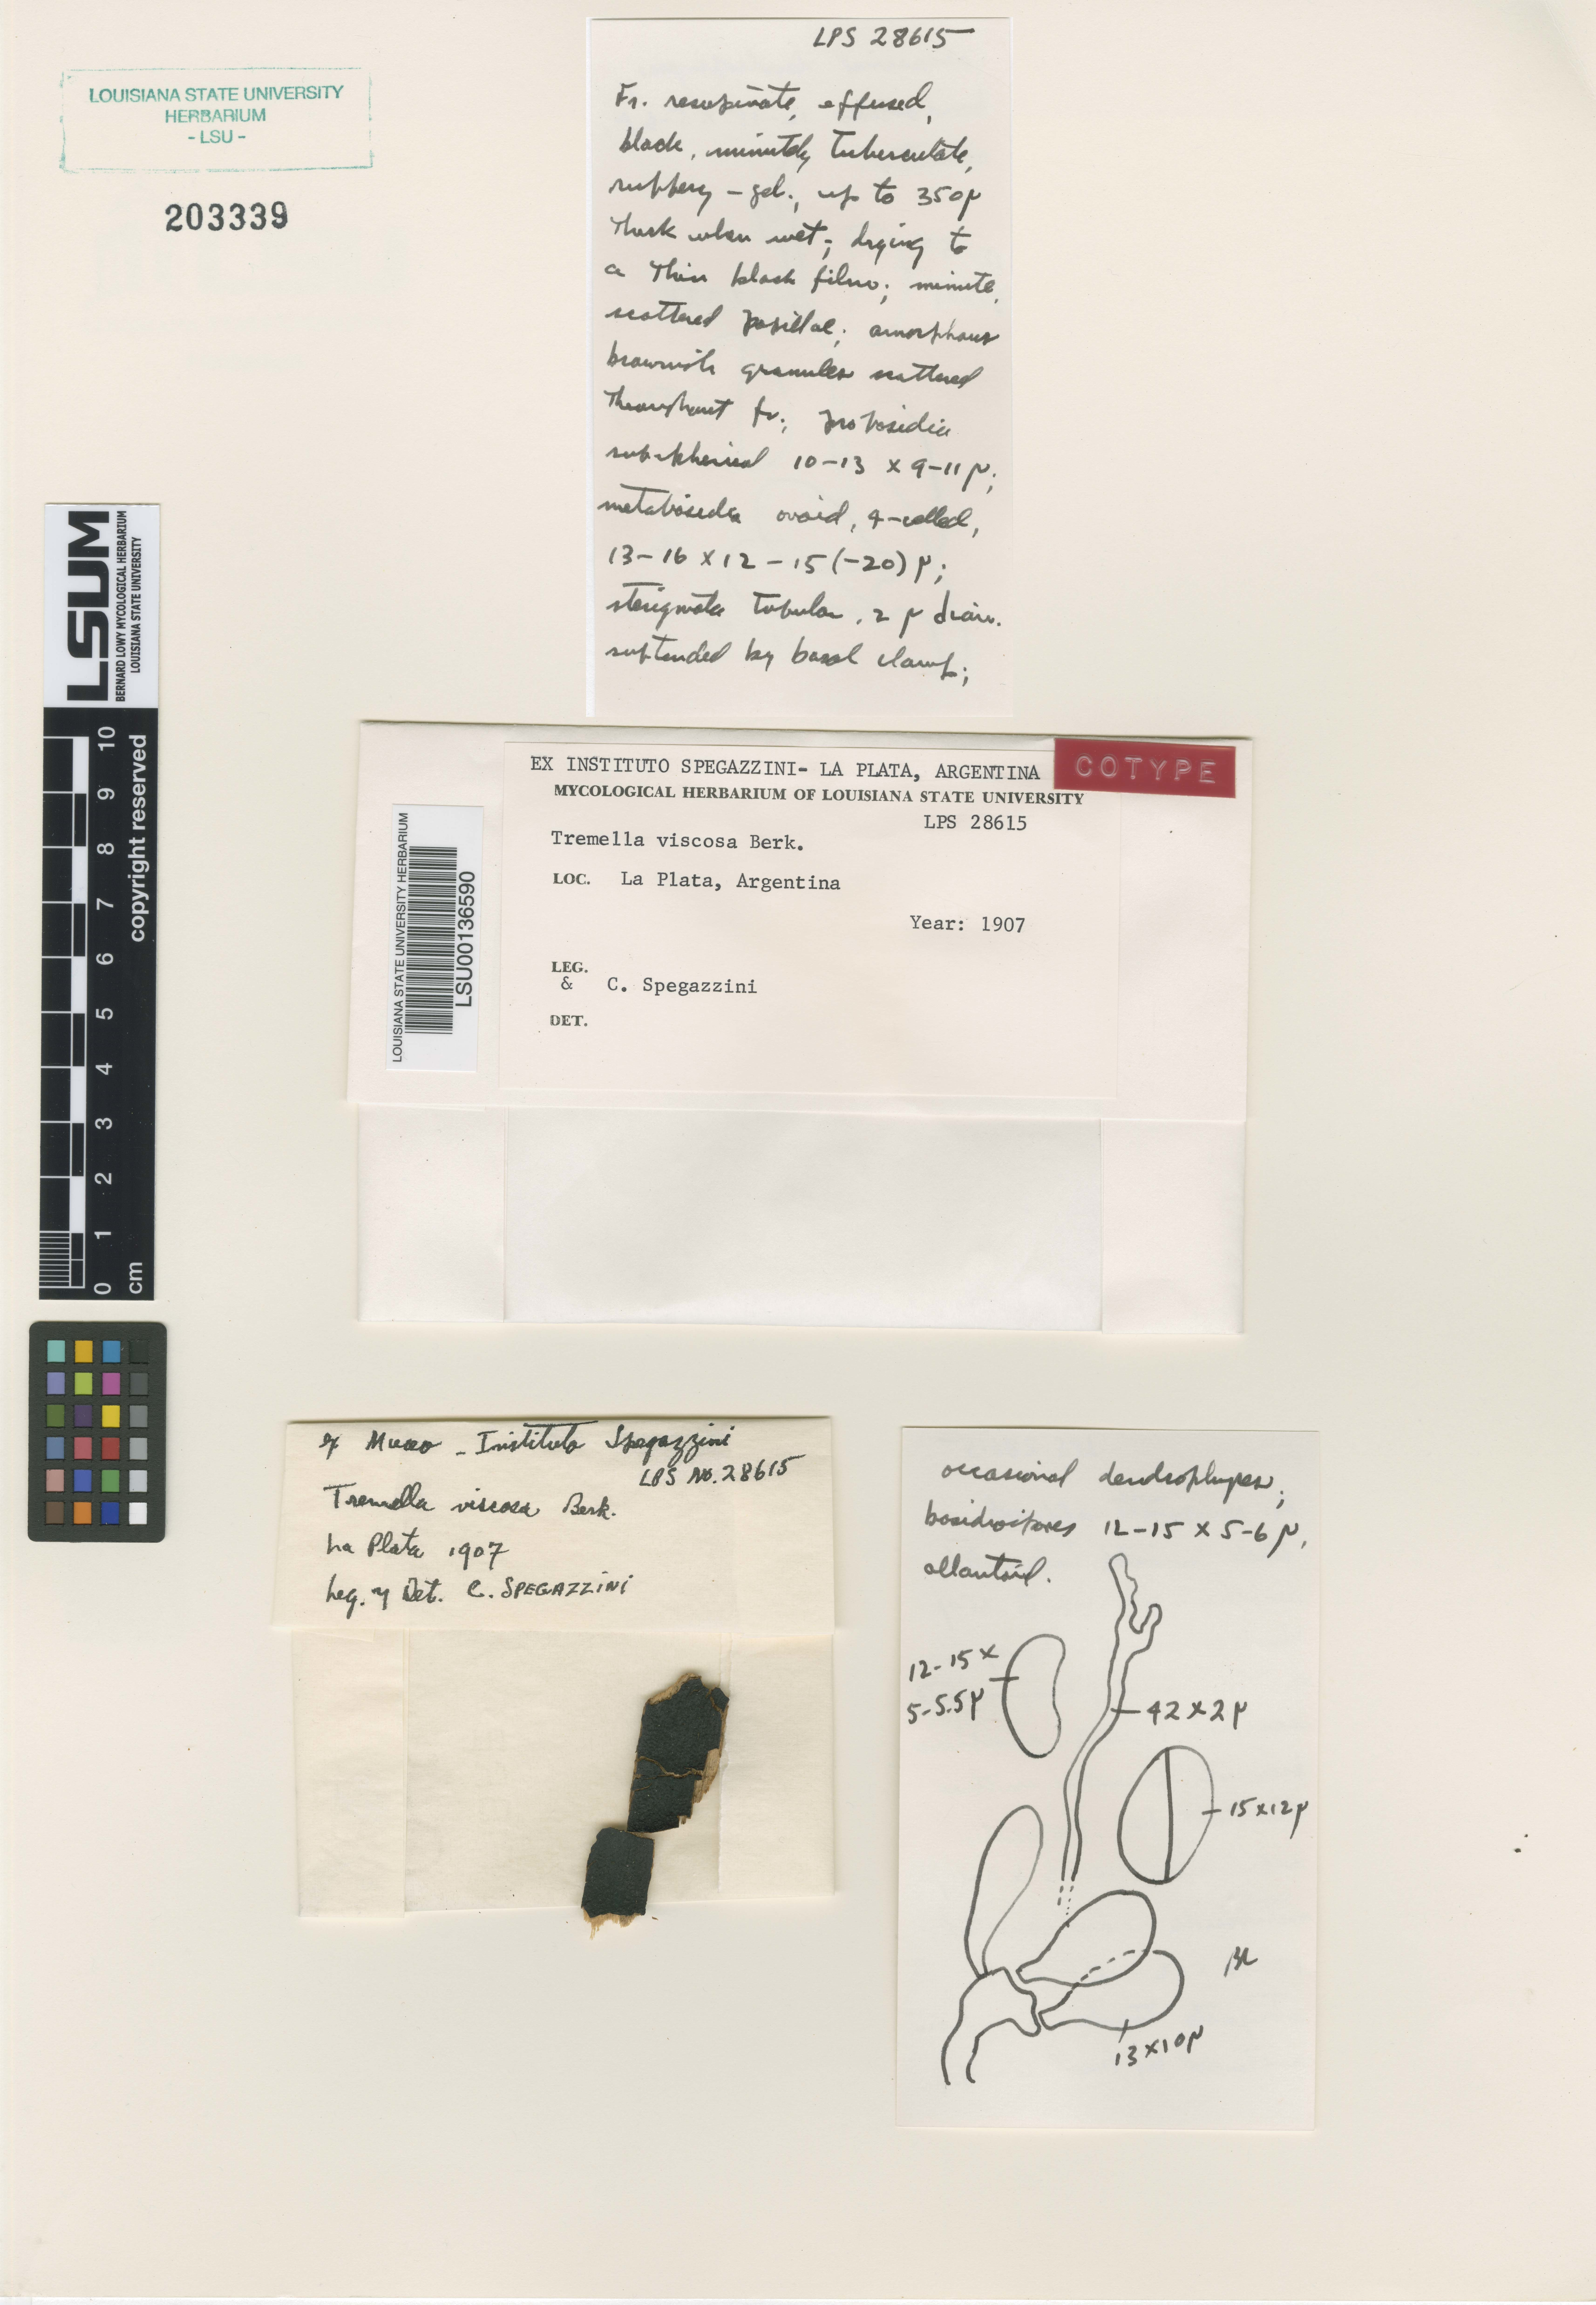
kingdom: Fungi
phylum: Basidiomycota
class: Agaricomycetes
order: Polyporales
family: Meruliaceae
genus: Mycoacia
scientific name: Mycoacia livida
